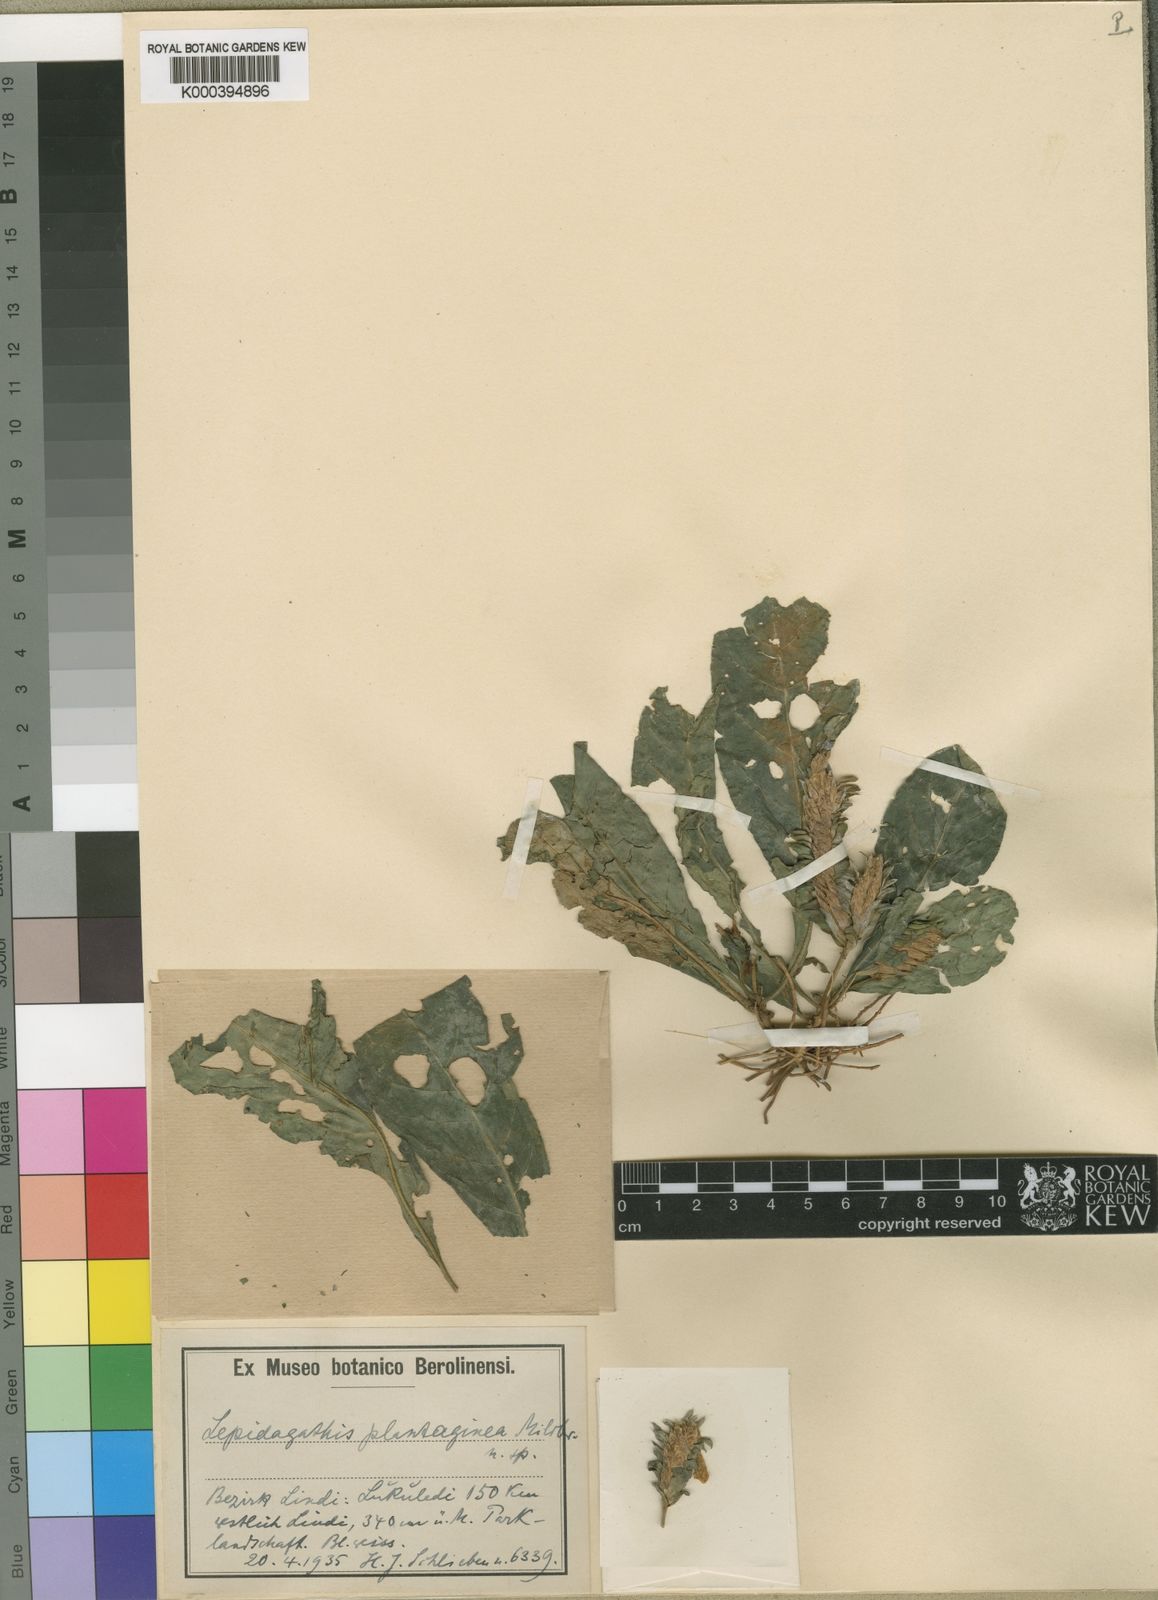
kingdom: Plantae
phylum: Tracheophyta
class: Magnoliopsida
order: Lamiales
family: Acanthaceae
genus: Lepidagathis
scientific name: Lepidagathis plantaginea
